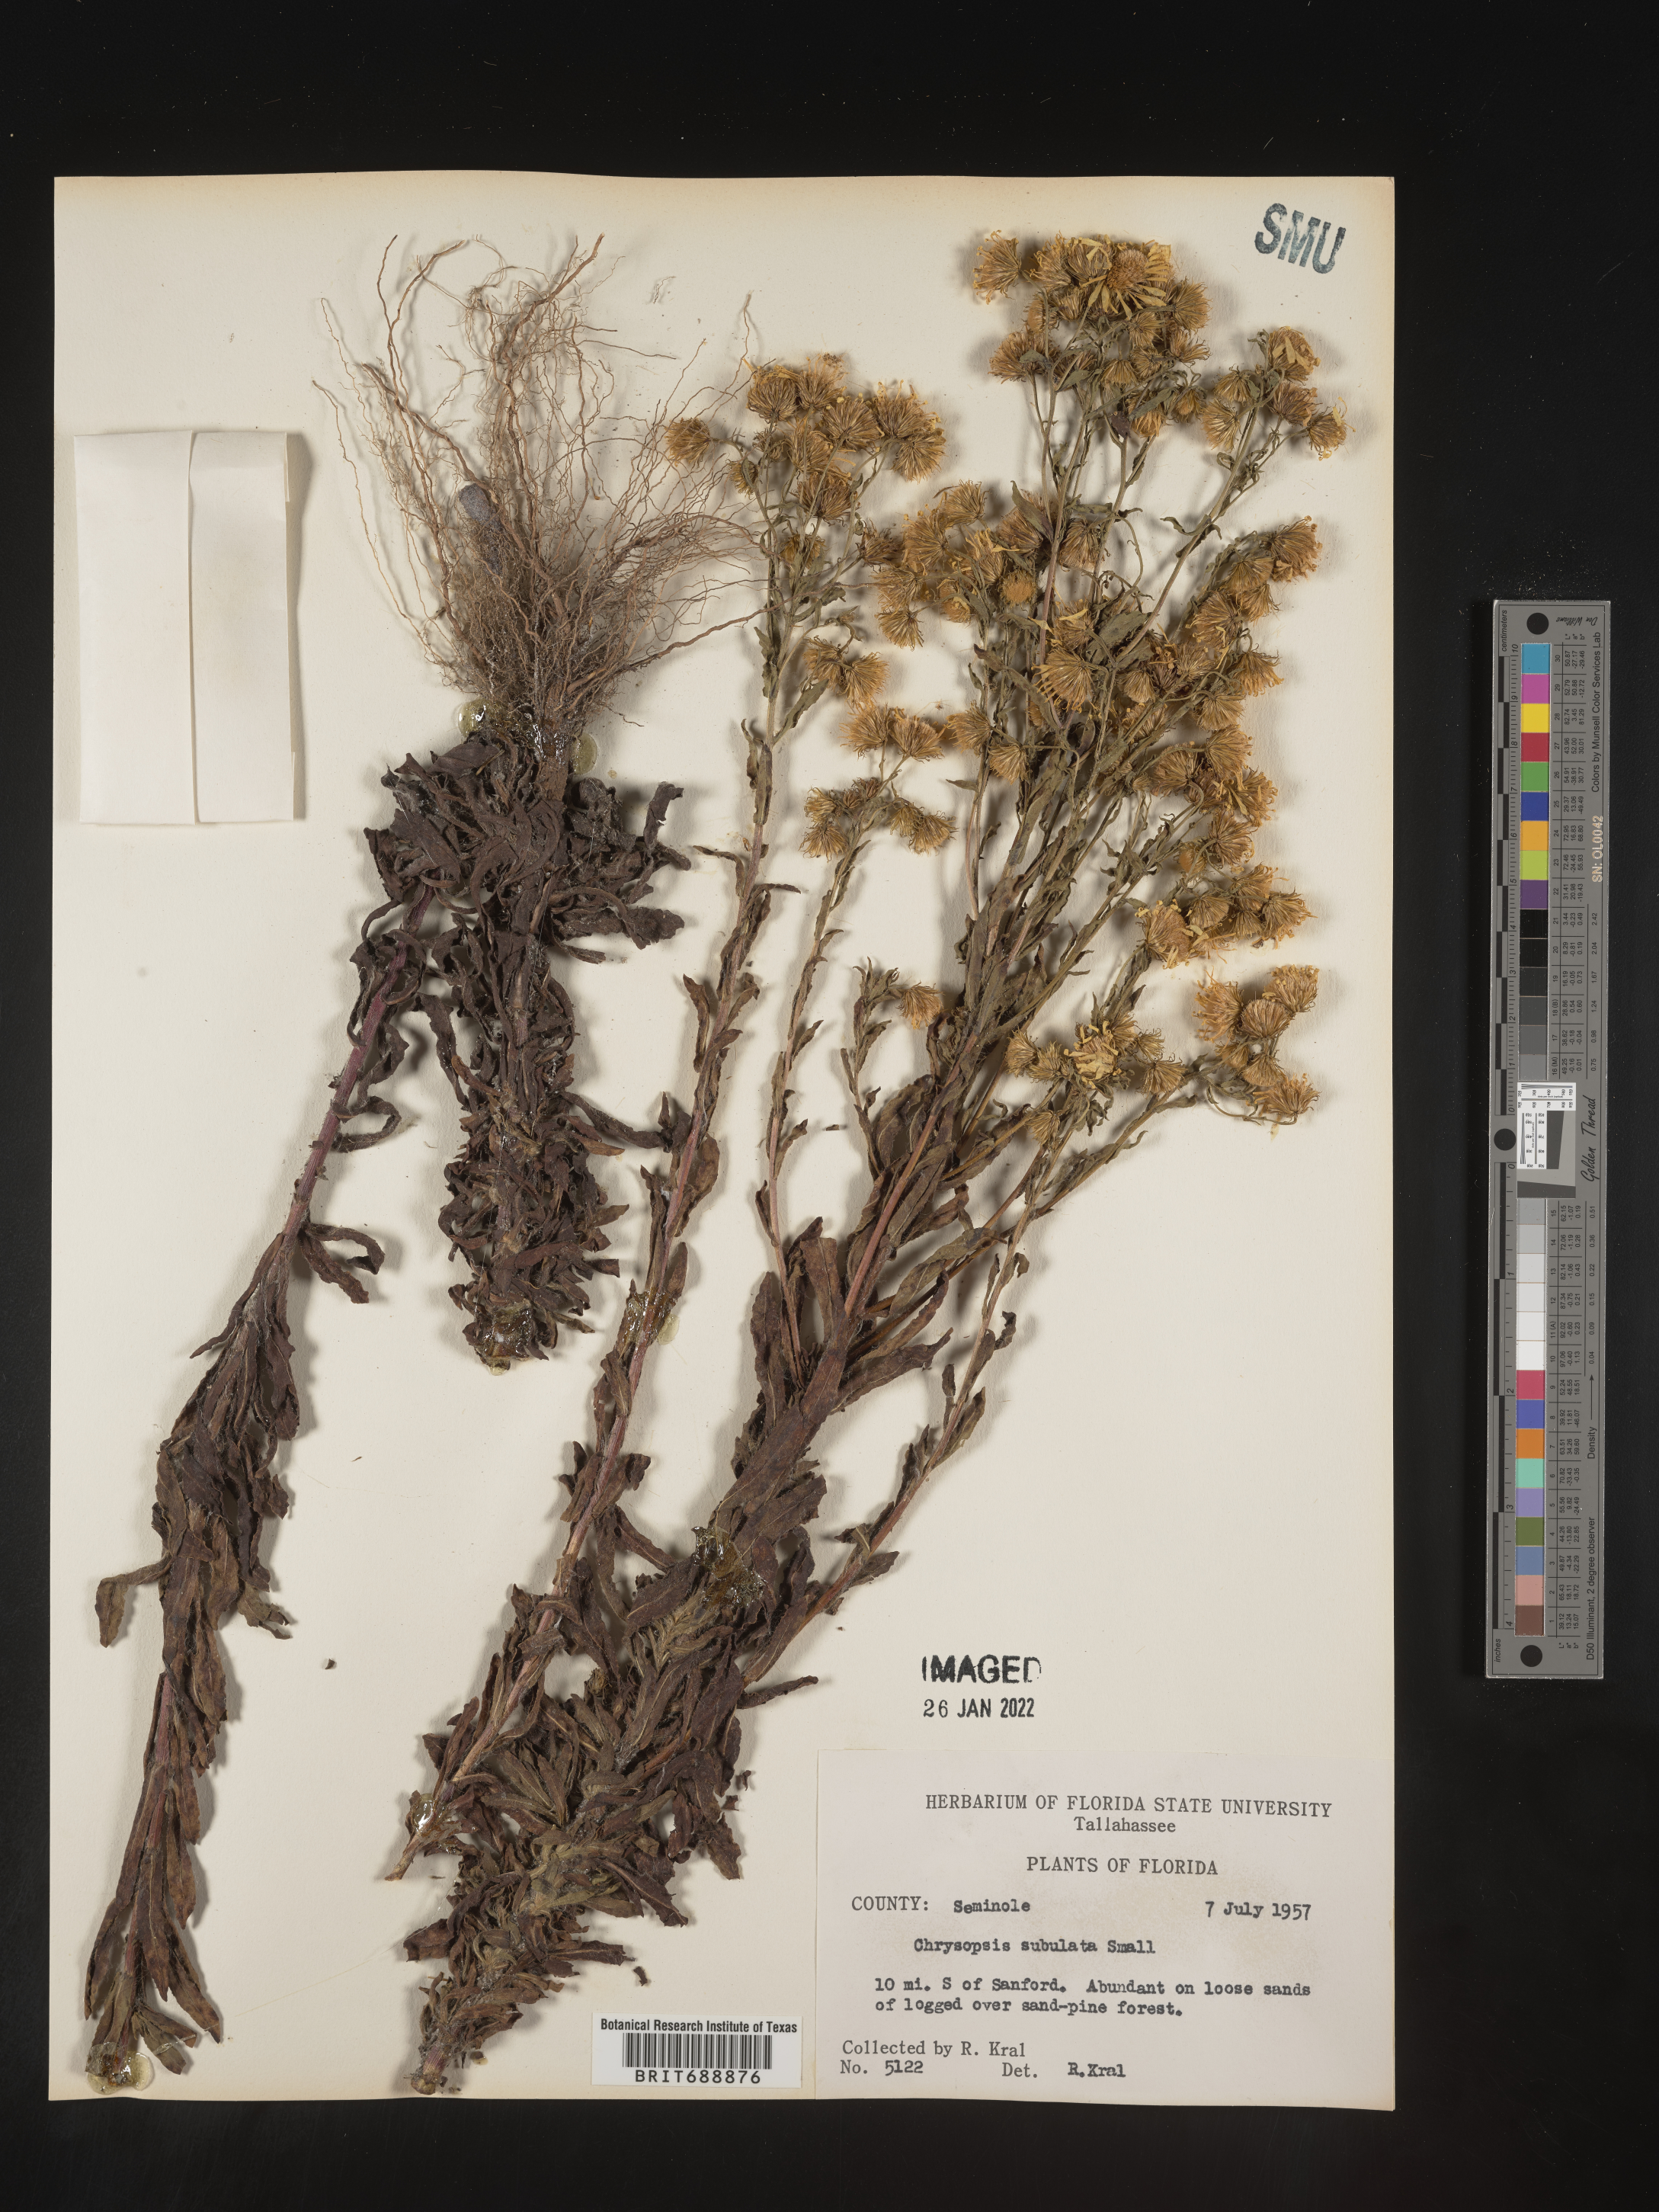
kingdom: Plantae
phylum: Tracheophyta
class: Magnoliopsida
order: Asterales
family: Asteraceae
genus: Chrysopsis
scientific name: Chrysopsis subulata
